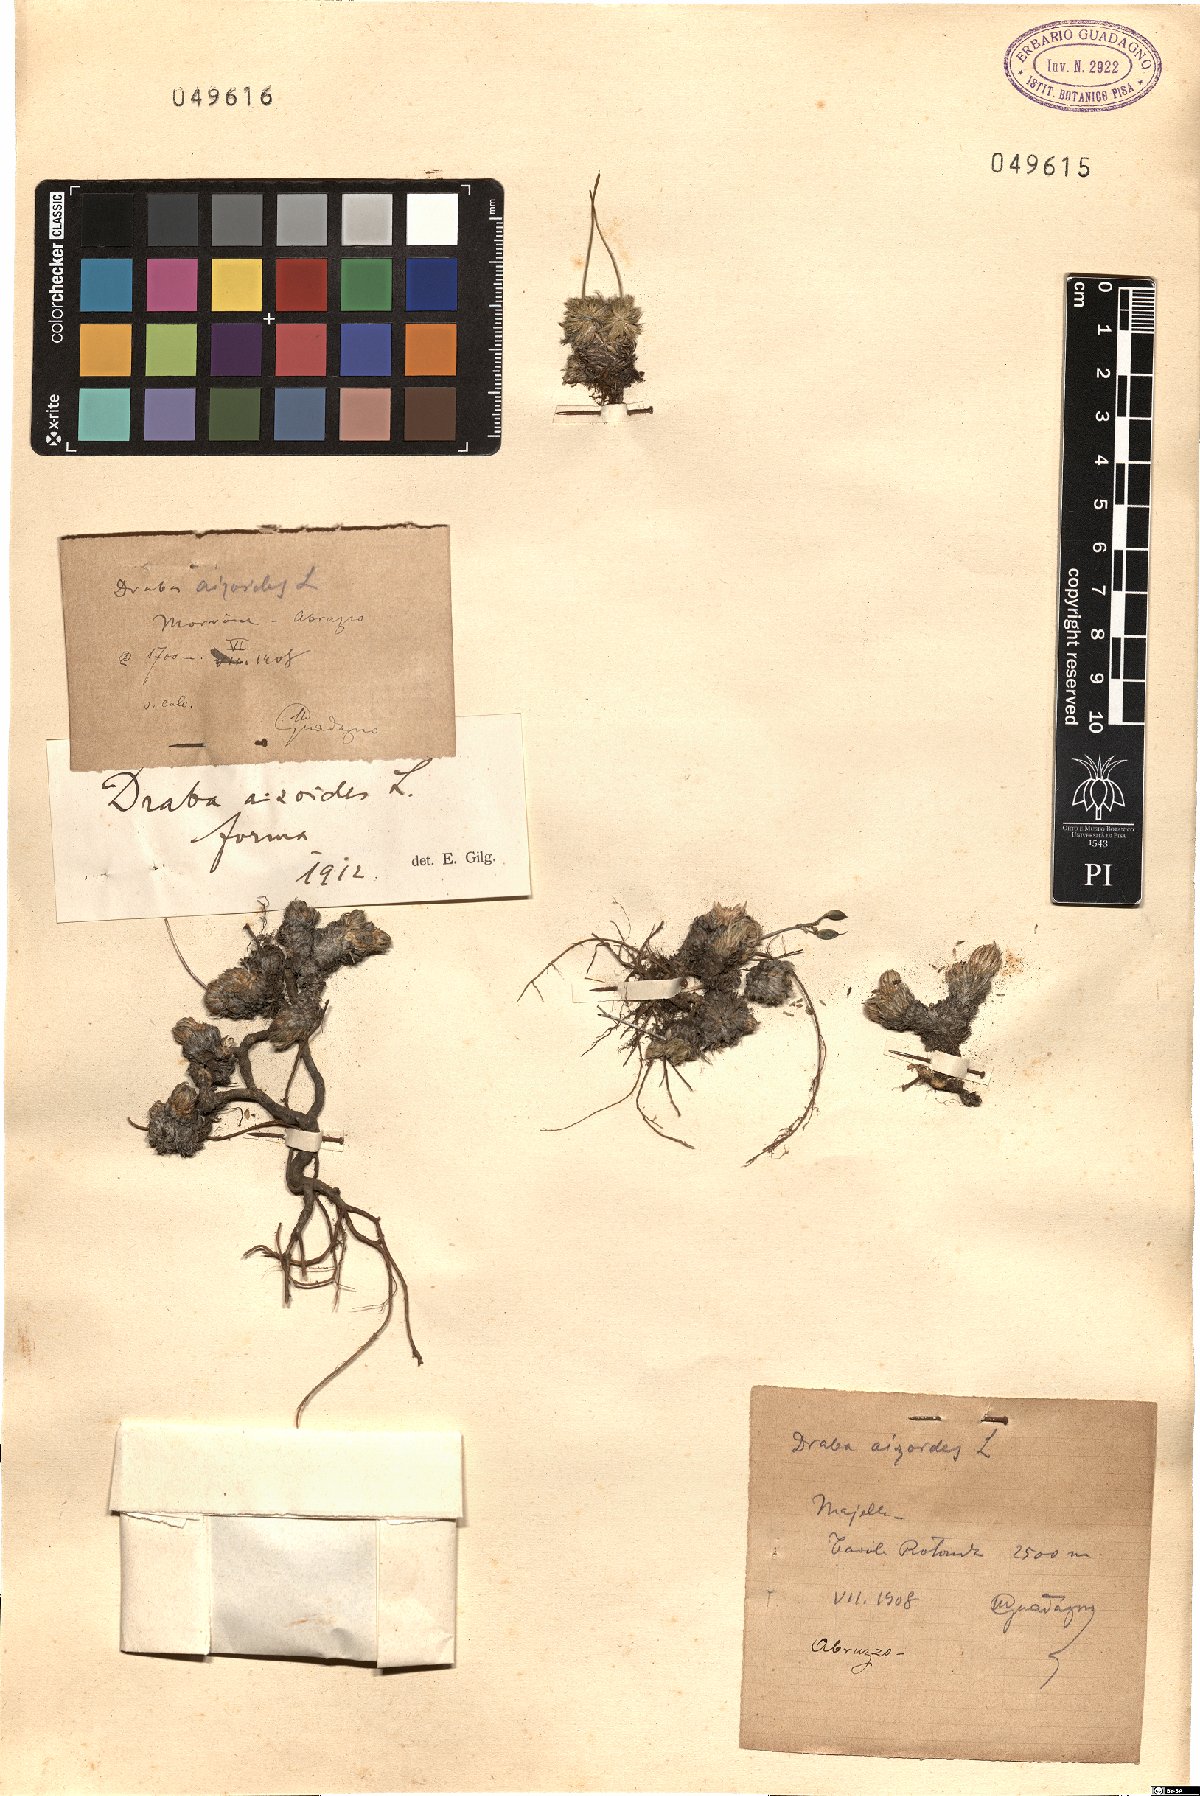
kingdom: Plantae
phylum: Tracheophyta
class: Magnoliopsida
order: Brassicales
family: Brassicaceae
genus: Draba
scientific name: Draba aizoides
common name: Yellow whitlowgrass
